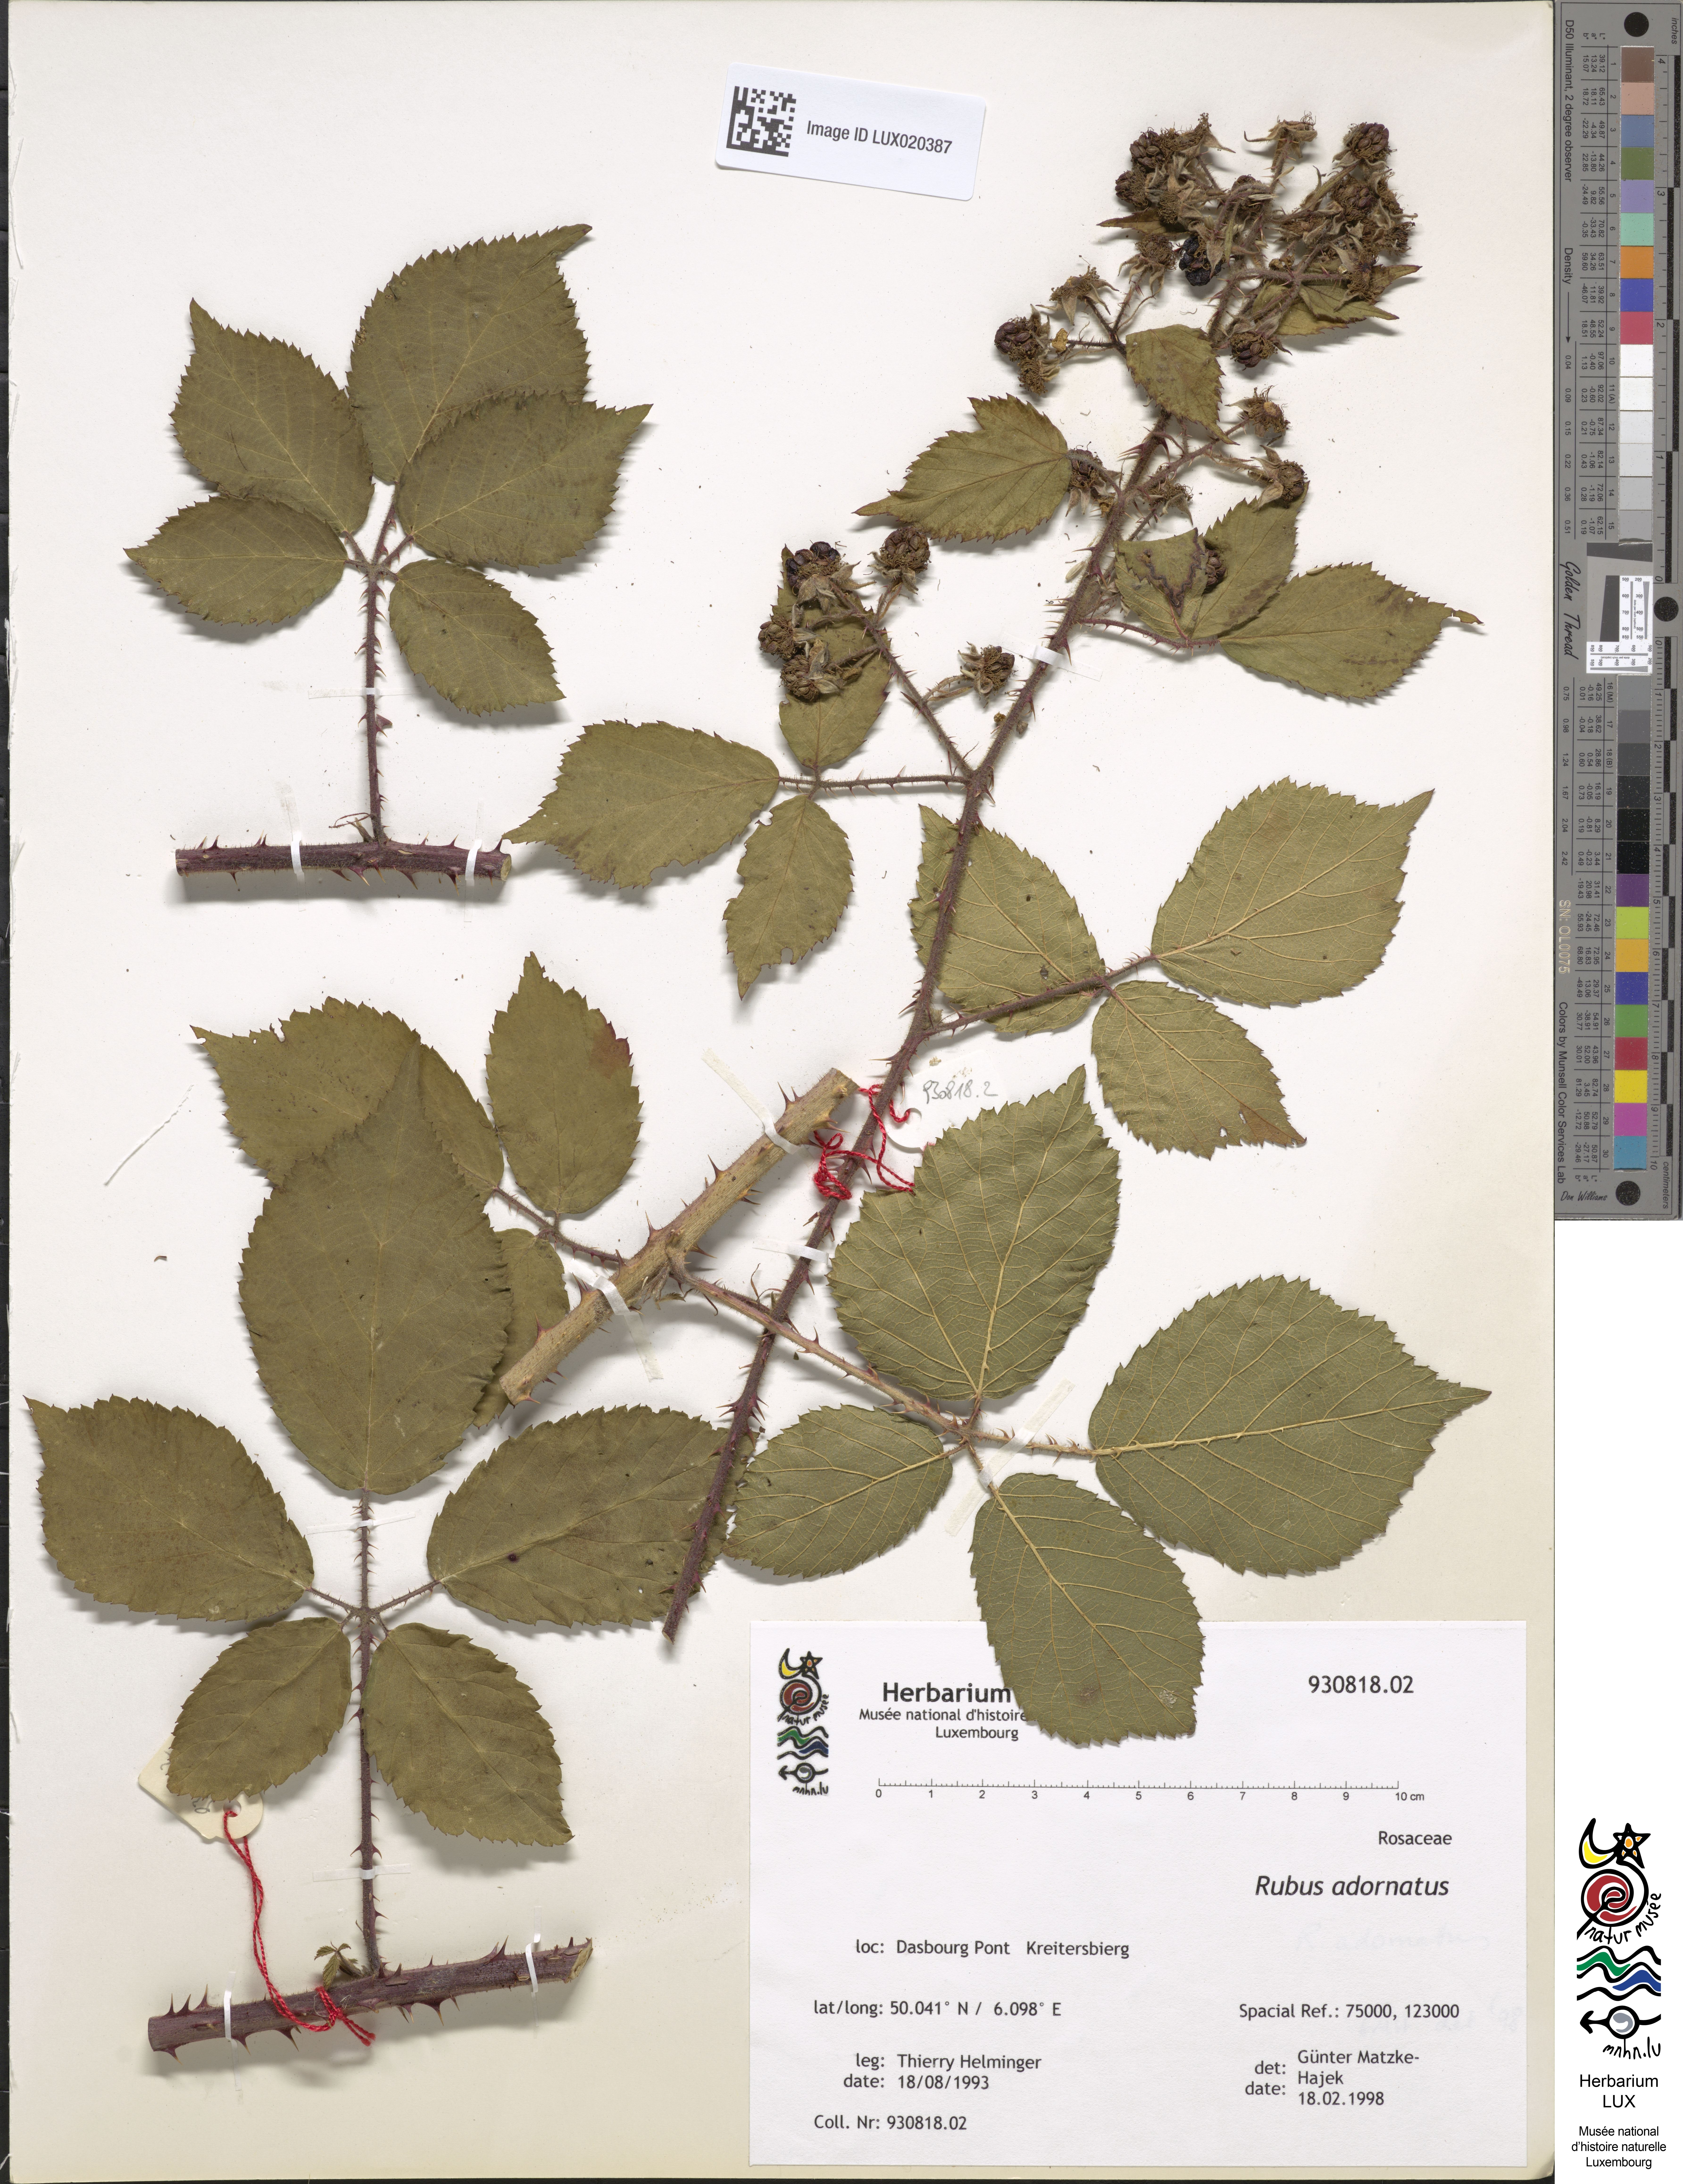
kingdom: Plantae
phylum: Tracheophyta
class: Magnoliopsida
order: Rosales
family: Rosaceae
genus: Rubus
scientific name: Rubus
